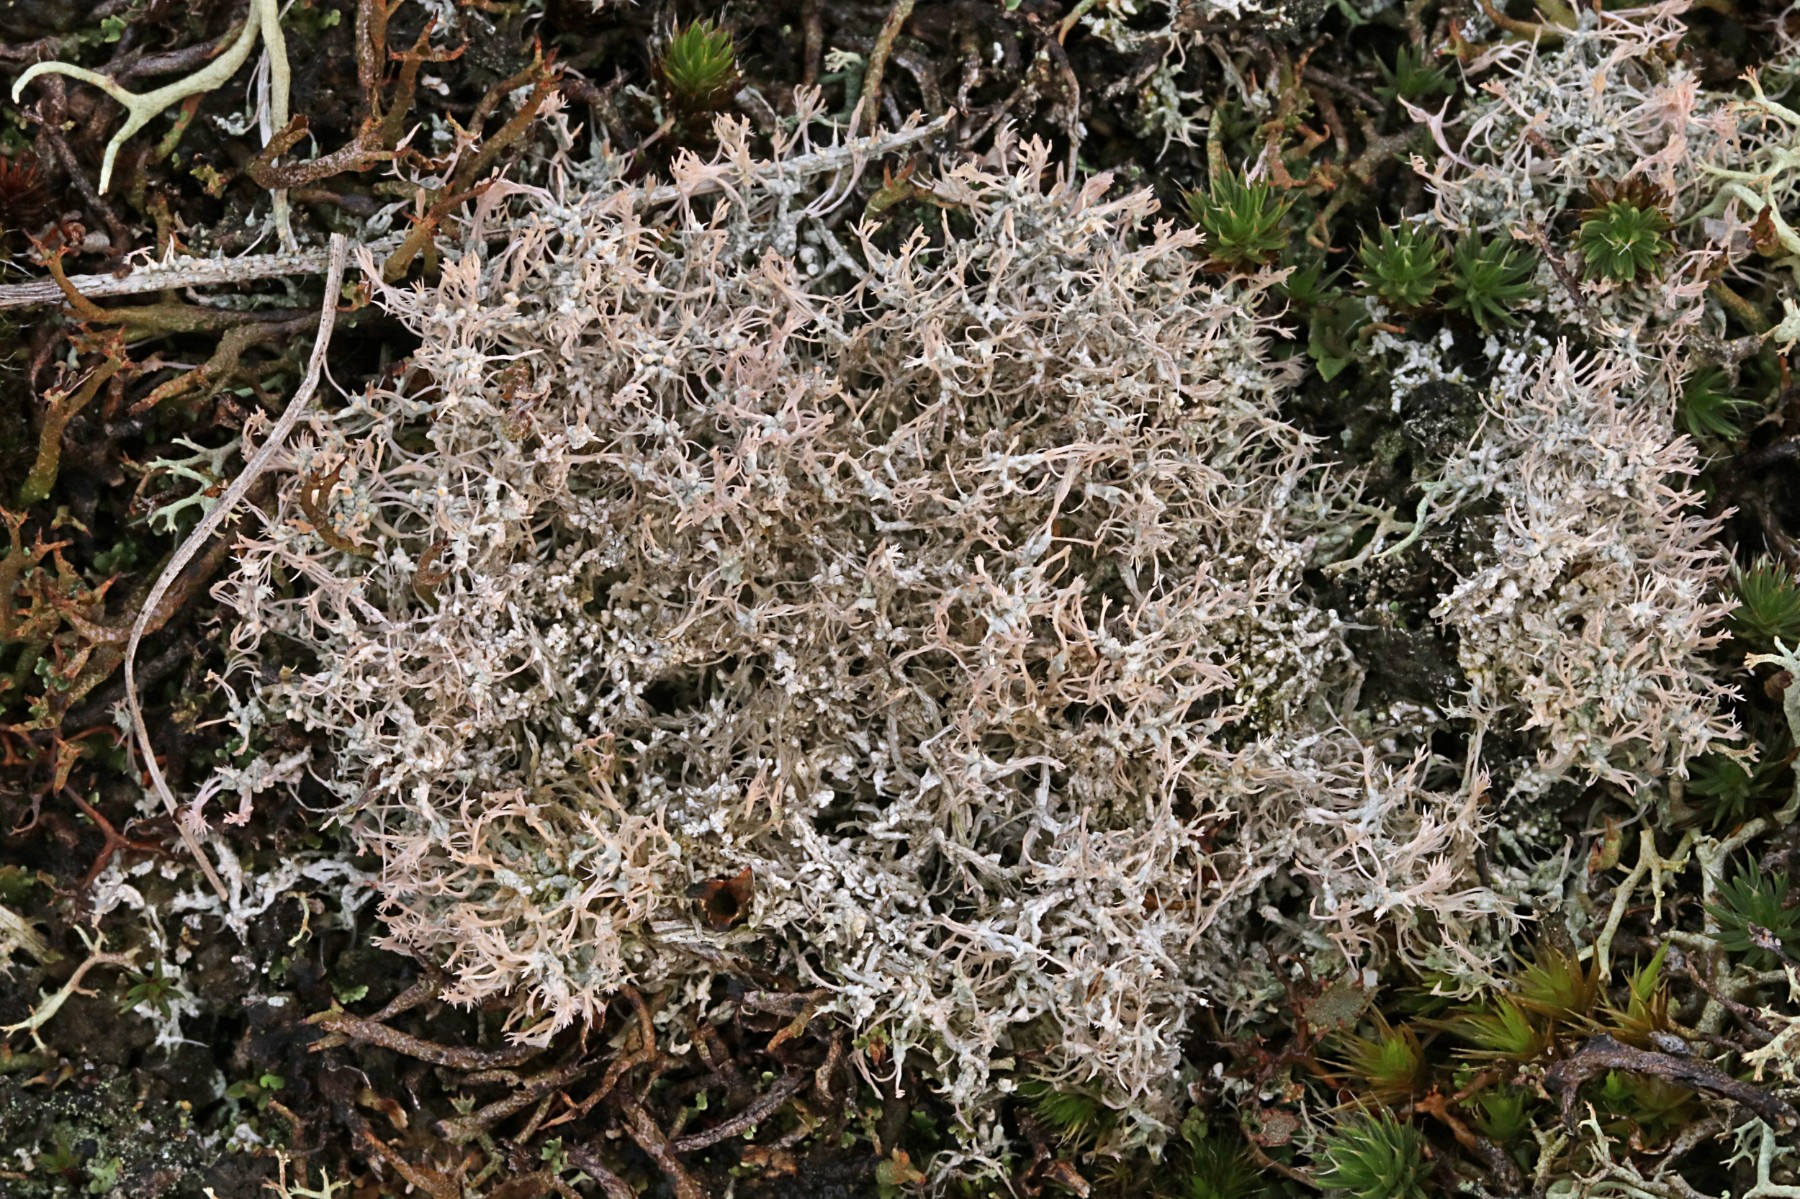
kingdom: Fungi
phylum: Ascomycota
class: Lecanoromycetes
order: Pertusariales
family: Ochrolechiaceae
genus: Ochrolechia
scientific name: Ochrolechia frigida
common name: fjeld-blegskivelav
